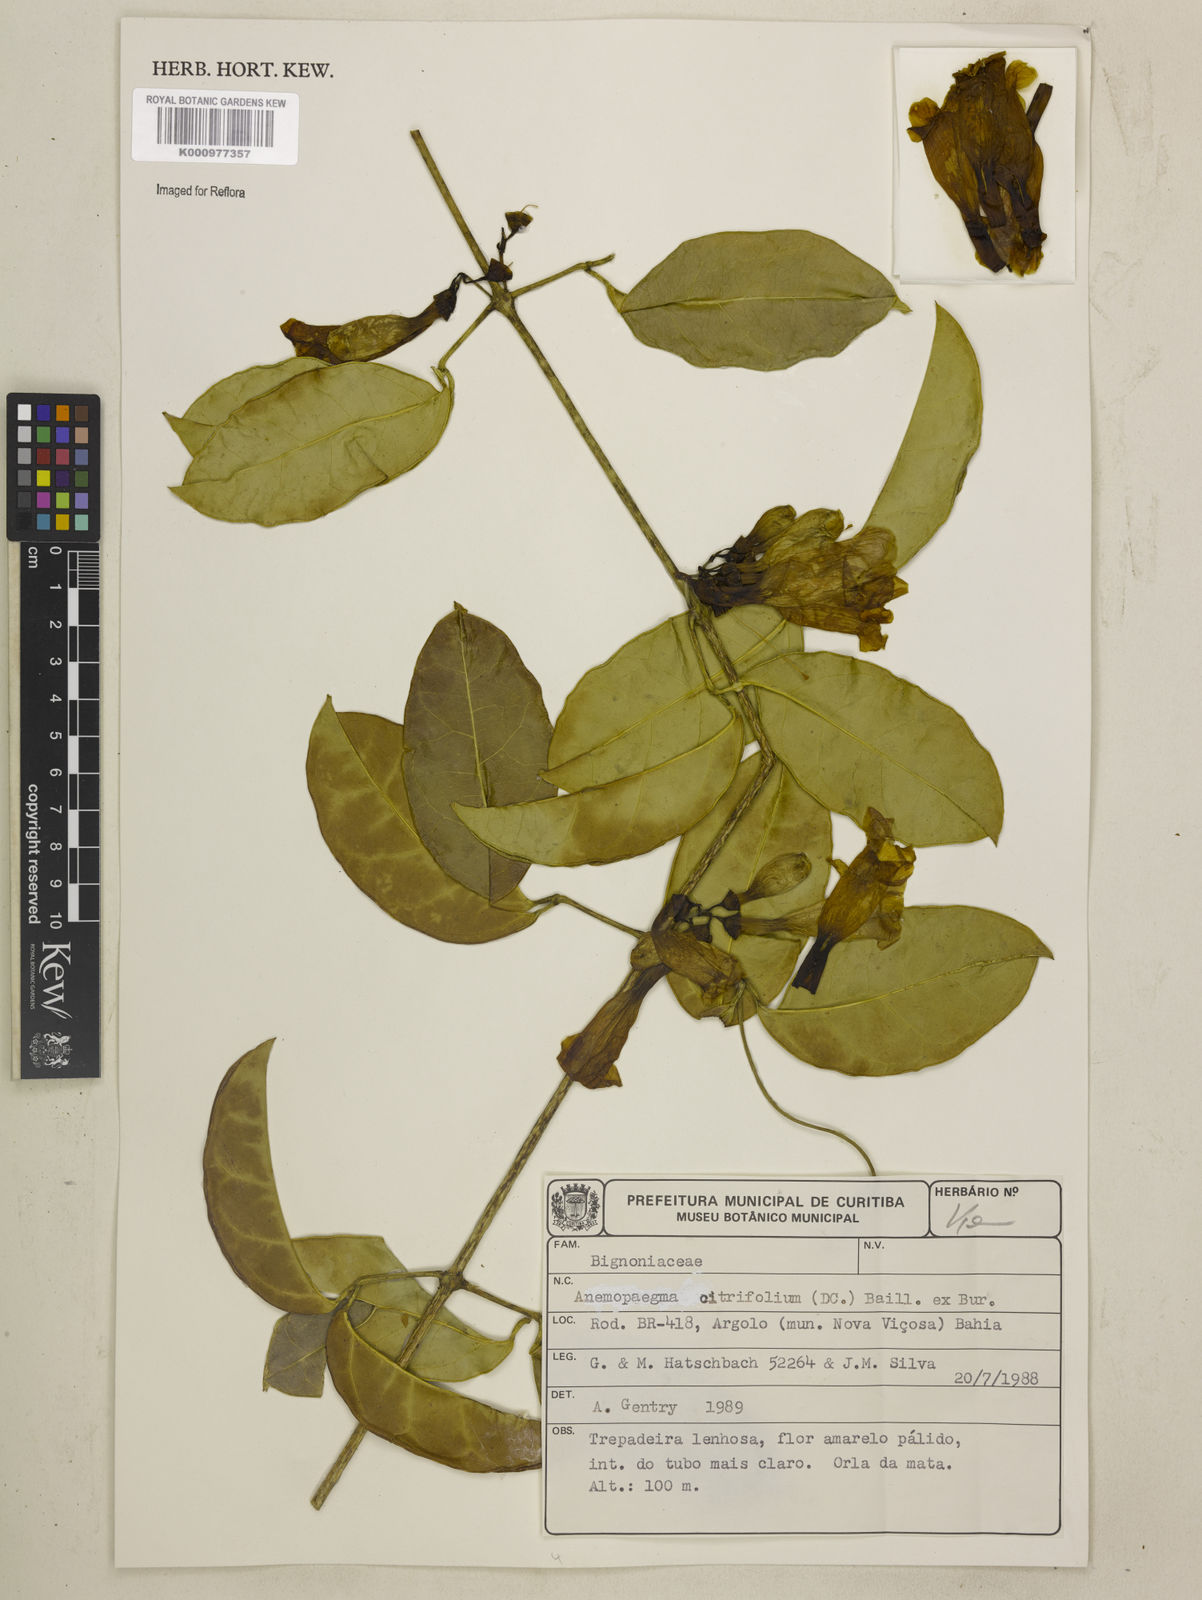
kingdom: Plantae
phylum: Tracheophyta
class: Magnoliopsida
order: Lamiales
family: Bignoniaceae
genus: Anemopaegma
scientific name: Anemopaegma citrinum
